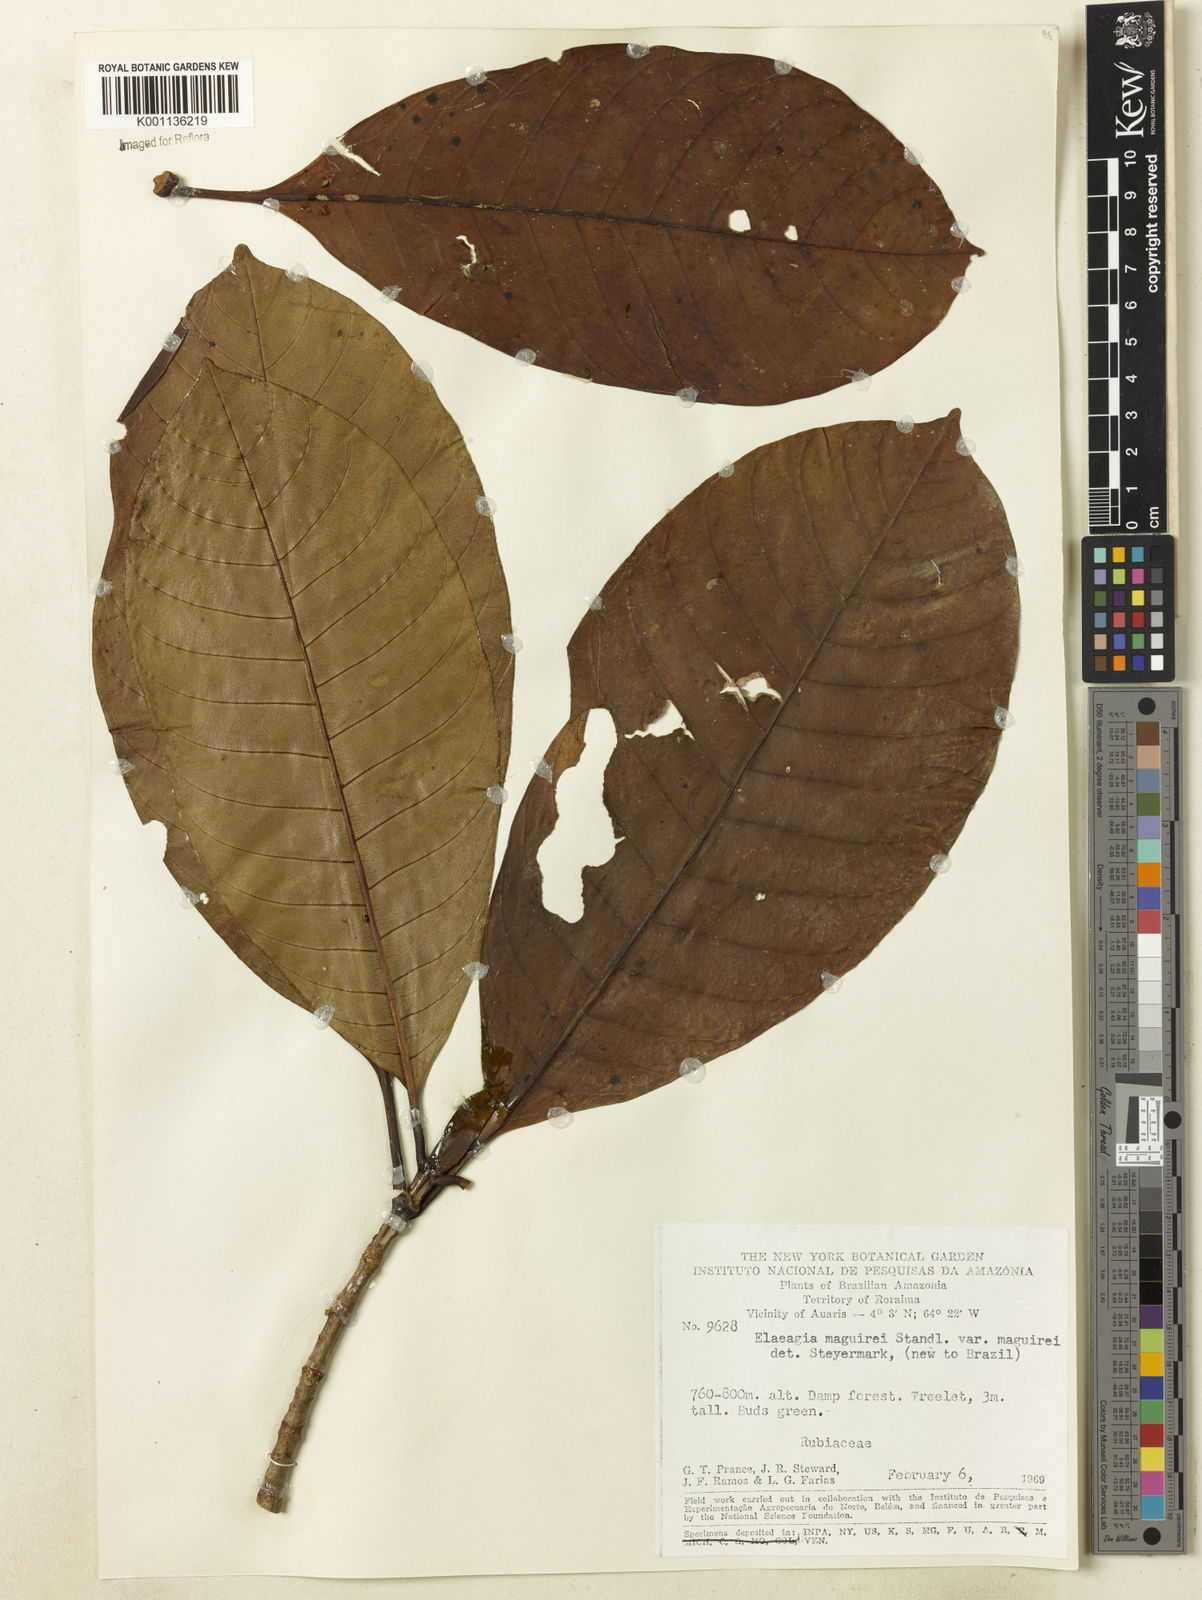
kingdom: Plantae
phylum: Tracheophyta
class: Magnoliopsida
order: Gentianales
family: Rubiaceae
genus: Elaeagia
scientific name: Elaeagia maguirei
